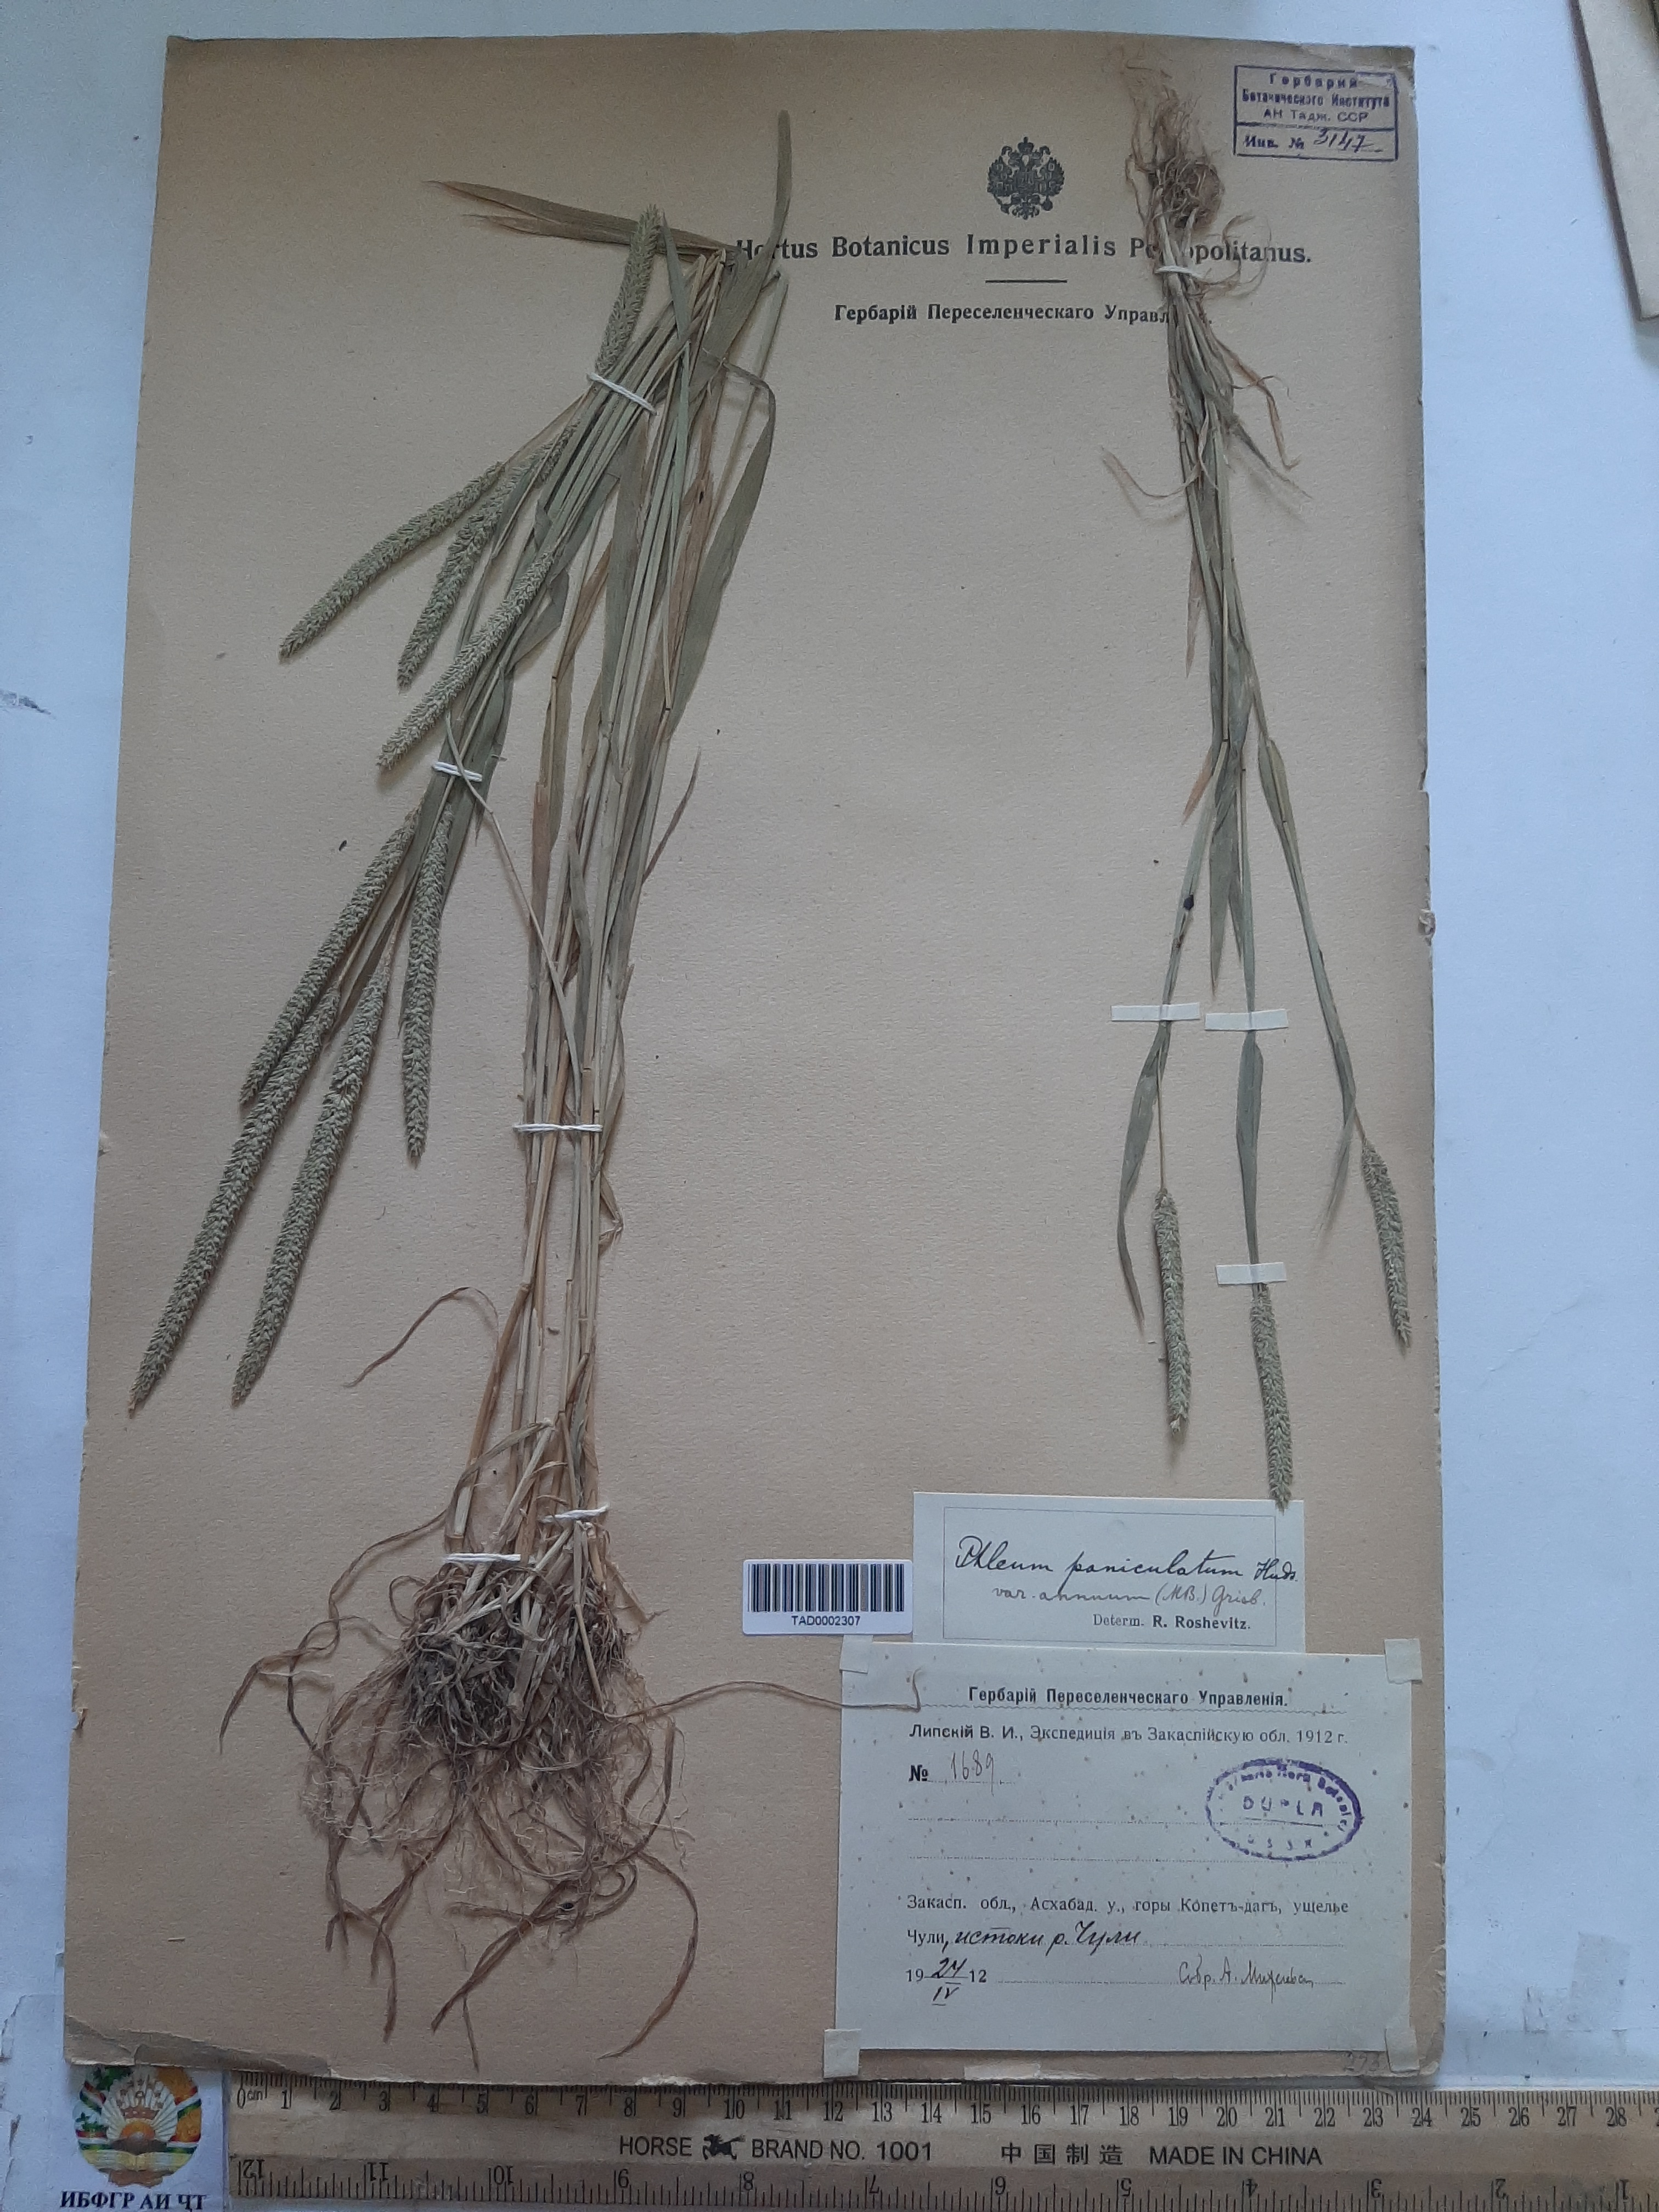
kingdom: Plantae
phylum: Tracheophyta
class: Liliopsida
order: Poales
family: Poaceae
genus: Phleum
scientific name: Phleum paniculatum
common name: British timothy
